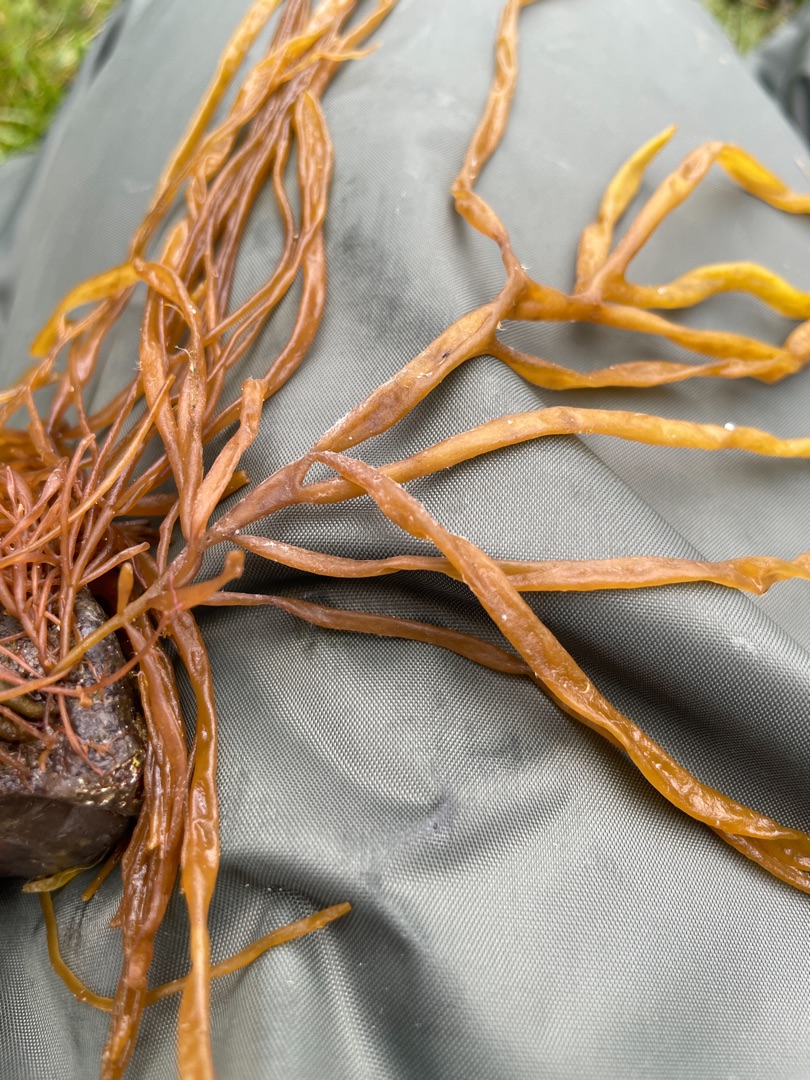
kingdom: Plantae
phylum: Rhodophyta
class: Florideophyceae
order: Gigartinales
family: Dumontiaceae
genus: Dumontia
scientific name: Dumontia contorta
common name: Dumontalge
